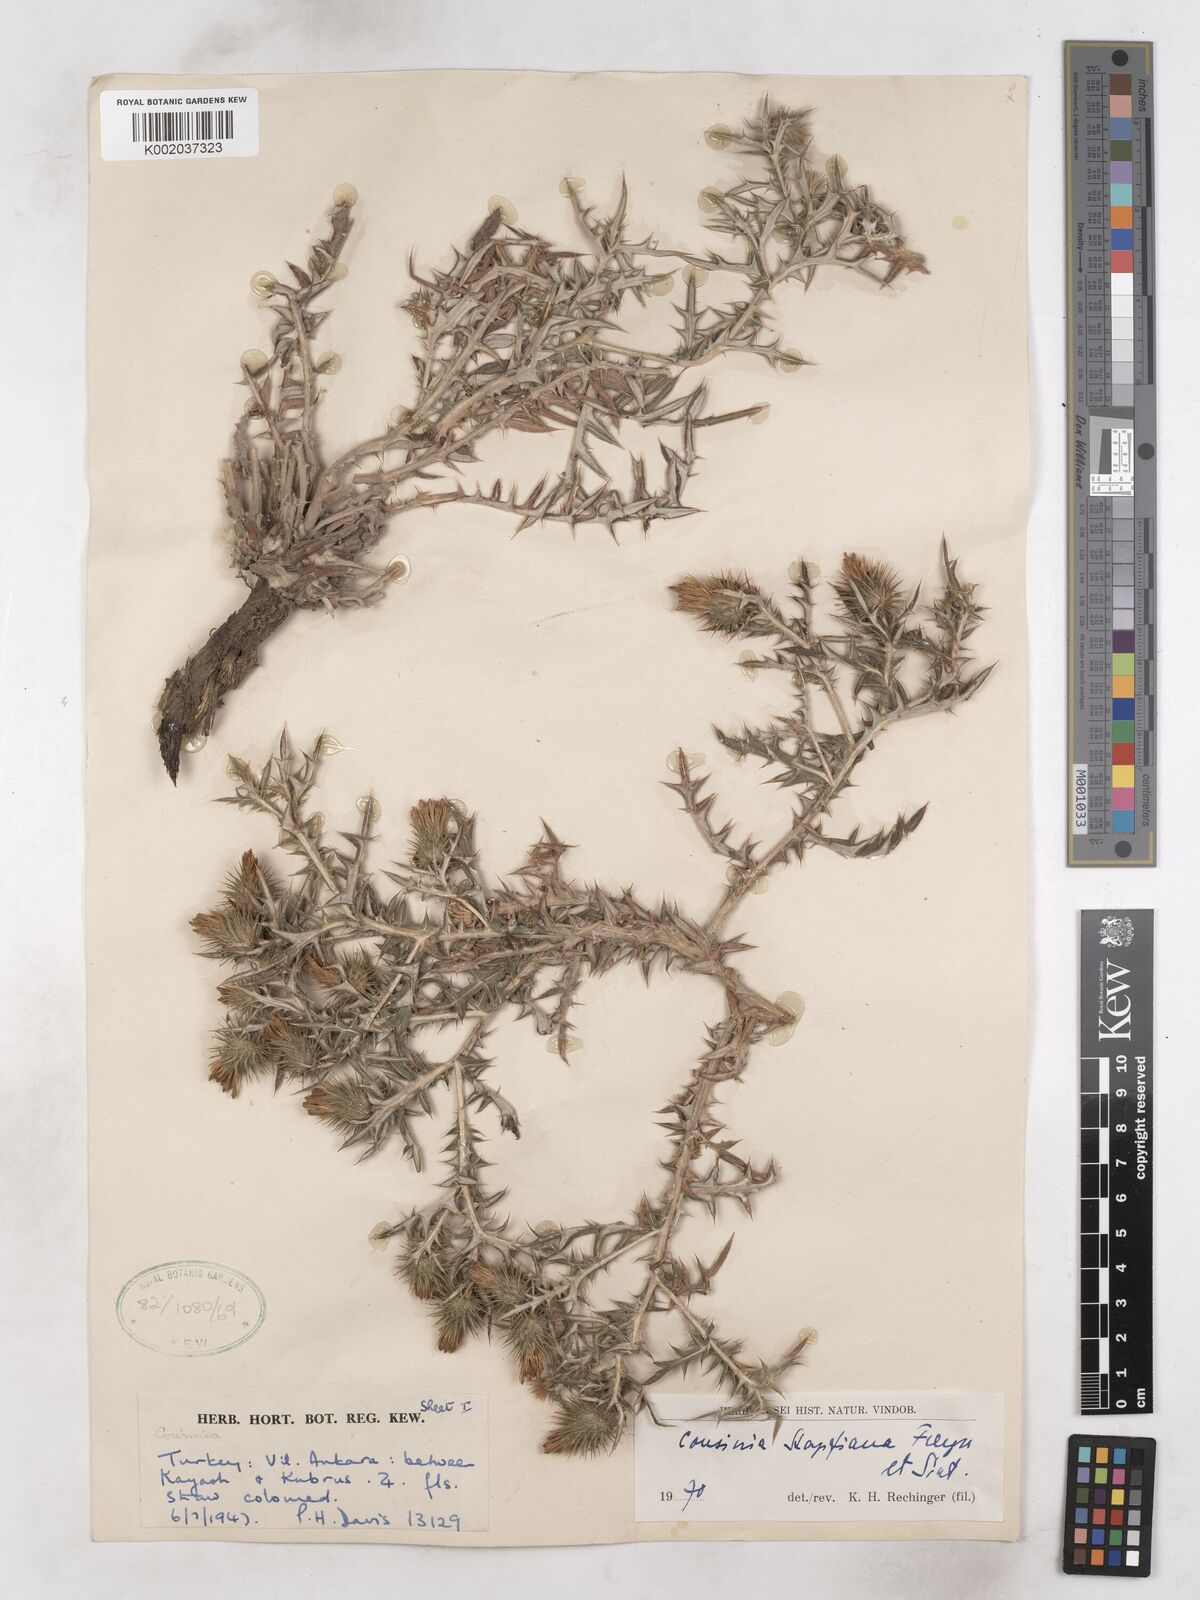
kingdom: Plantae
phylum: Tracheophyta
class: Magnoliopsida
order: Asterales
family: Asteraceae
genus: Cousinia
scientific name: Cousinia stapfiana
